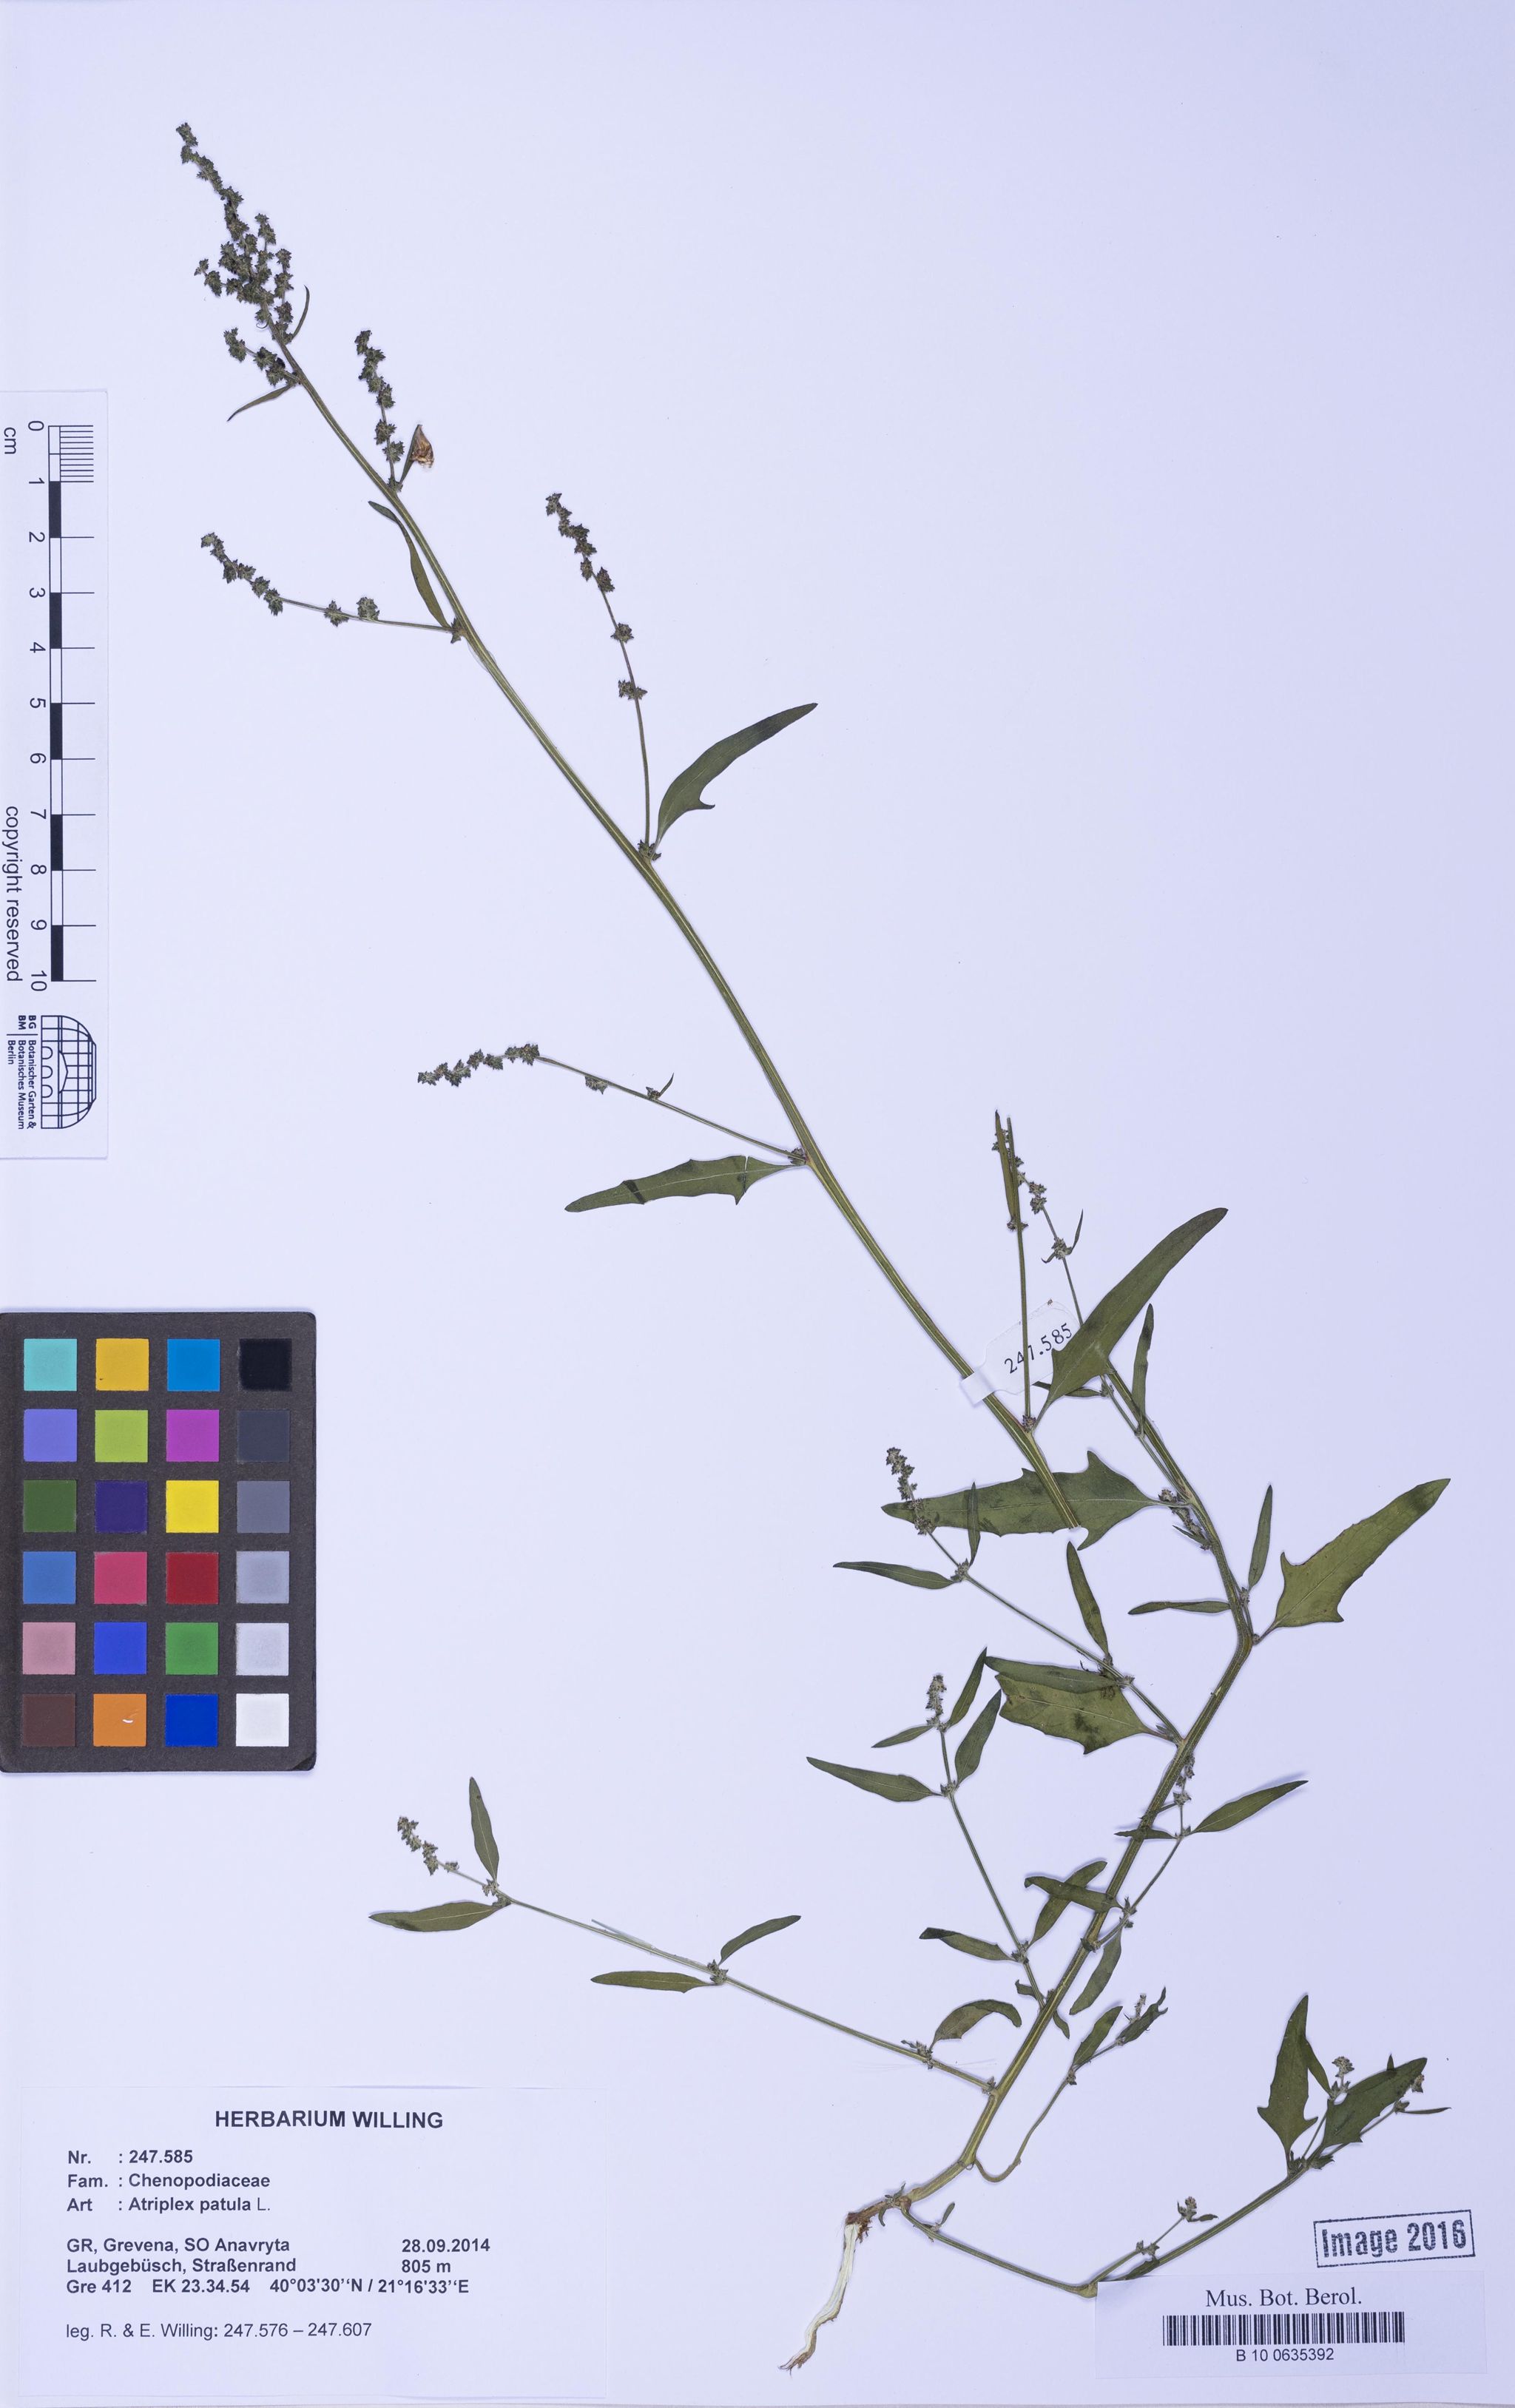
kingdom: Plantae
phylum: Tracheophyta
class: Magnoliopsida
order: Caryophyllales
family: Amaranthaceae
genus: Atriplex
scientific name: Atriplex patula
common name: Common orache
